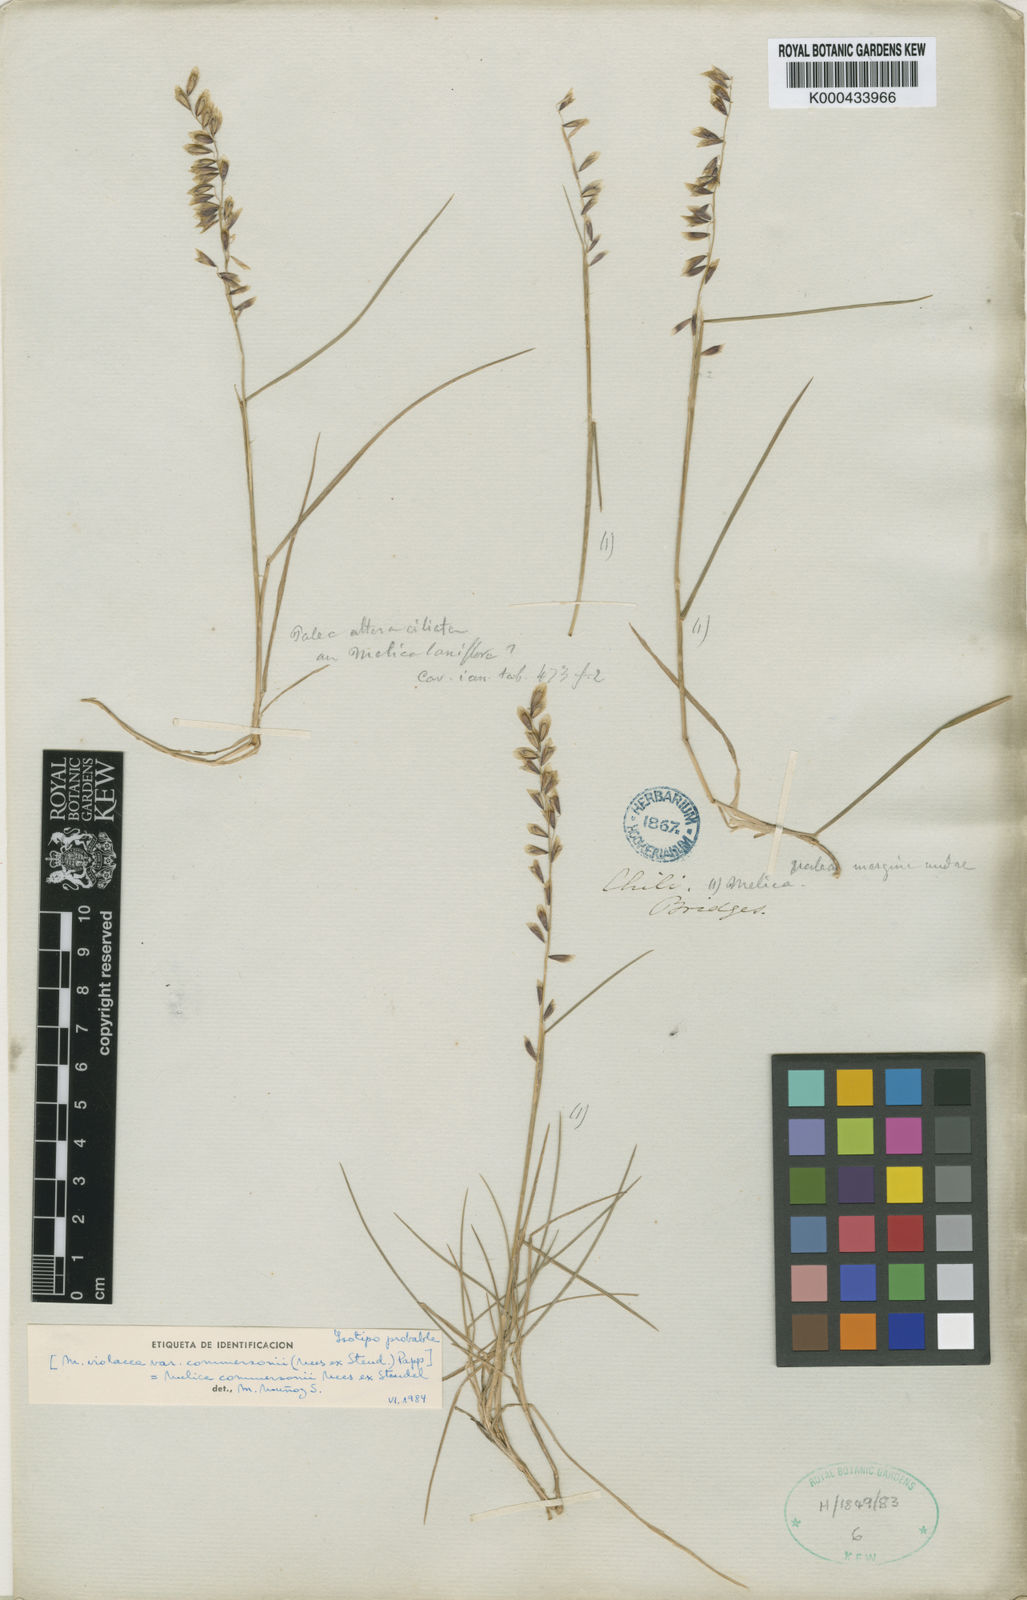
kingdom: Plantae
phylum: Tracheophyta
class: Liliopsida
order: Poales
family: Poaceae
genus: Melica
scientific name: Melica commersonii
